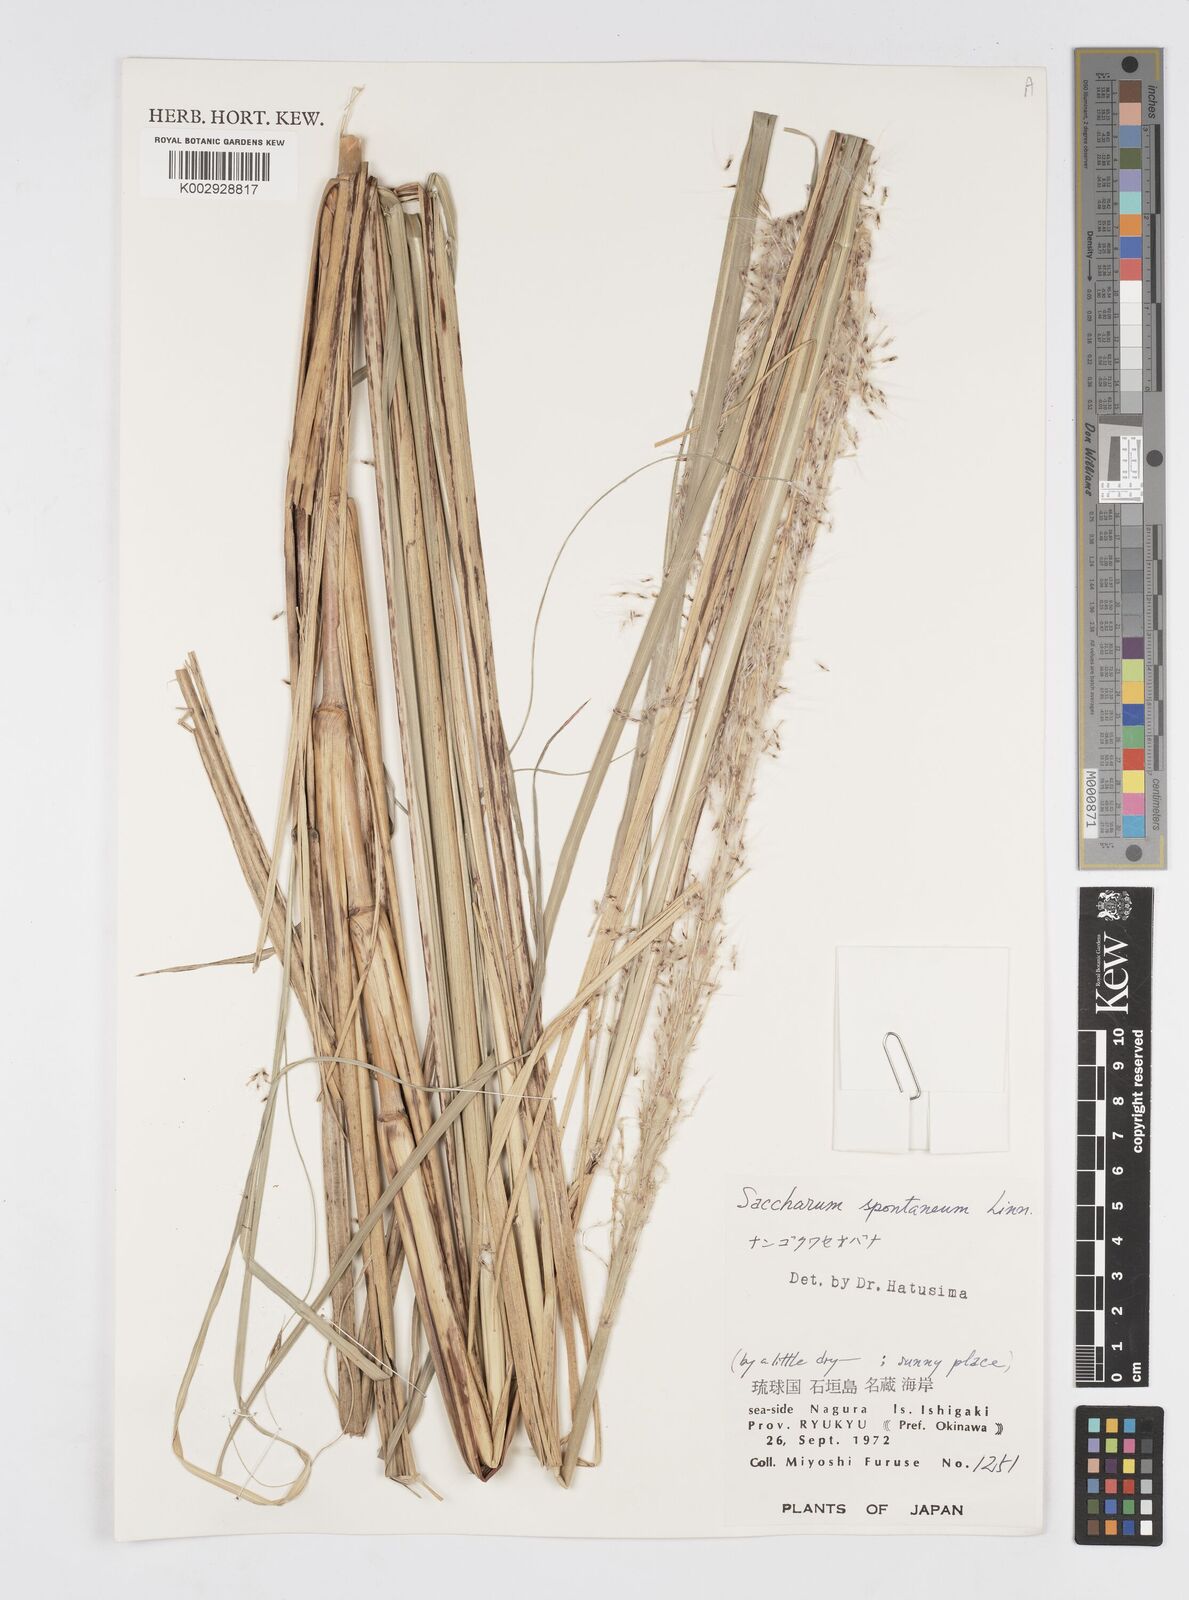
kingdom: Plantae
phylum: Tracheophyta
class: Liliopsida
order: Poales
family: Poaceae
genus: Saccharum
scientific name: Saccharum spontaneum
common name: Wild sugarcane
